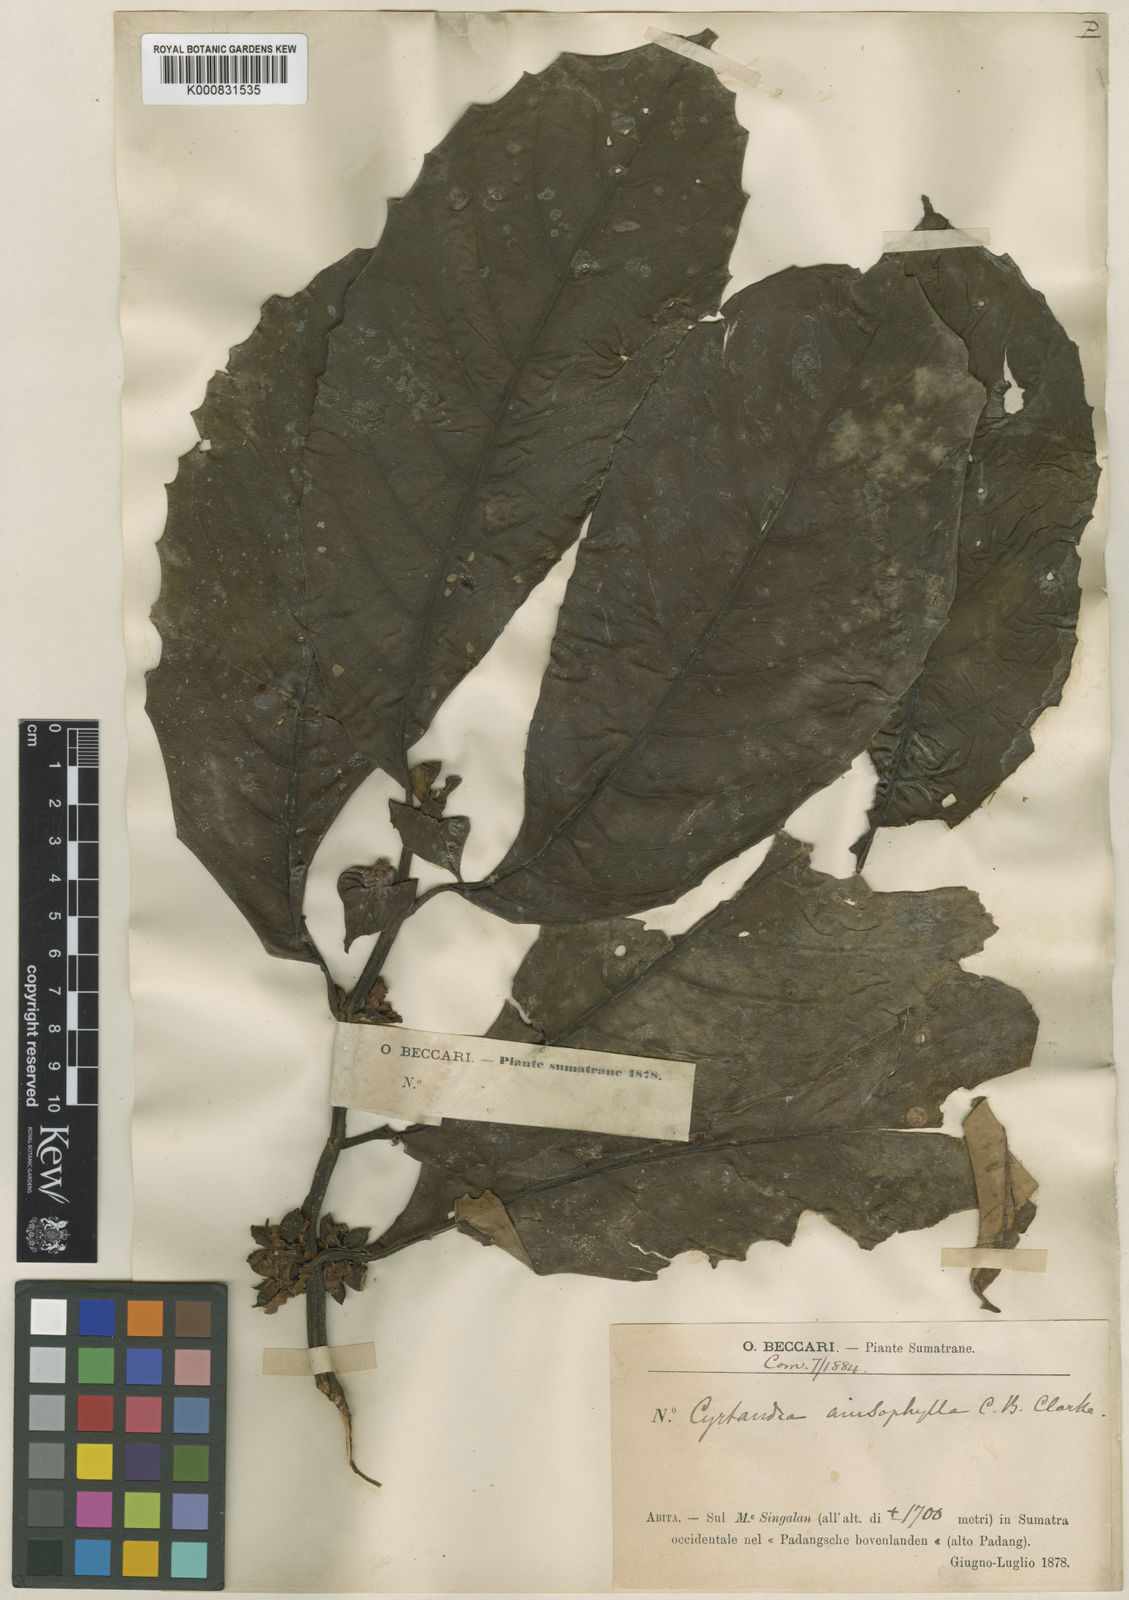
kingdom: Plantae
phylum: Tracheophyta
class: Magnoliopsida
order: Lamiales
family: Gesneriaceae
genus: Cyrtandra
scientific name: Cyrtandra anisophylla
